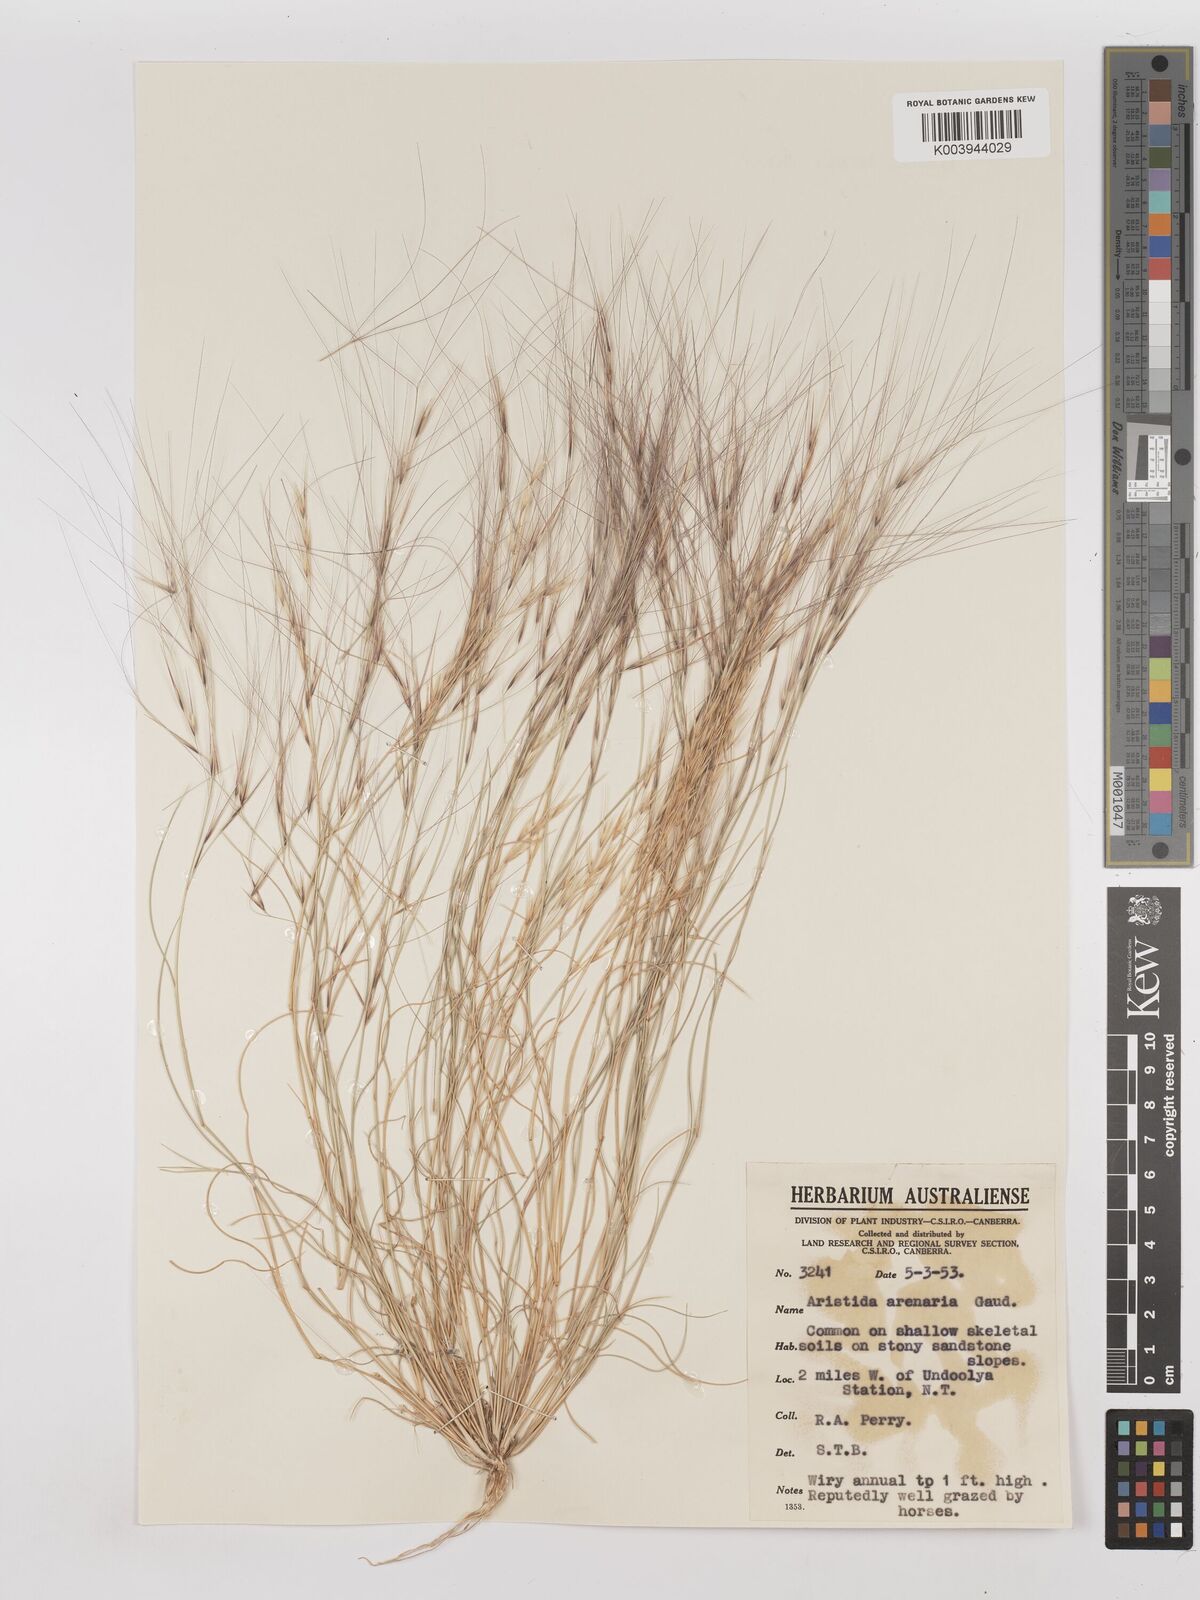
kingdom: Plantae
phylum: Tracheophyta
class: Liliopsida
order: Poales
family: Poaceae
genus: Aristida
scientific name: Aristida contorta
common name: Bunch kerosene grass
